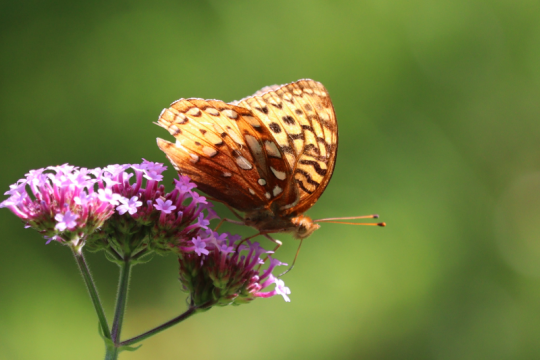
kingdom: Animalia
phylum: Arthropoda
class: Insecta
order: Lepidoptera
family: Nymphalidae
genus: Speyeria
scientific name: Speyeria cybele
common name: Great Spangled Fritillary
